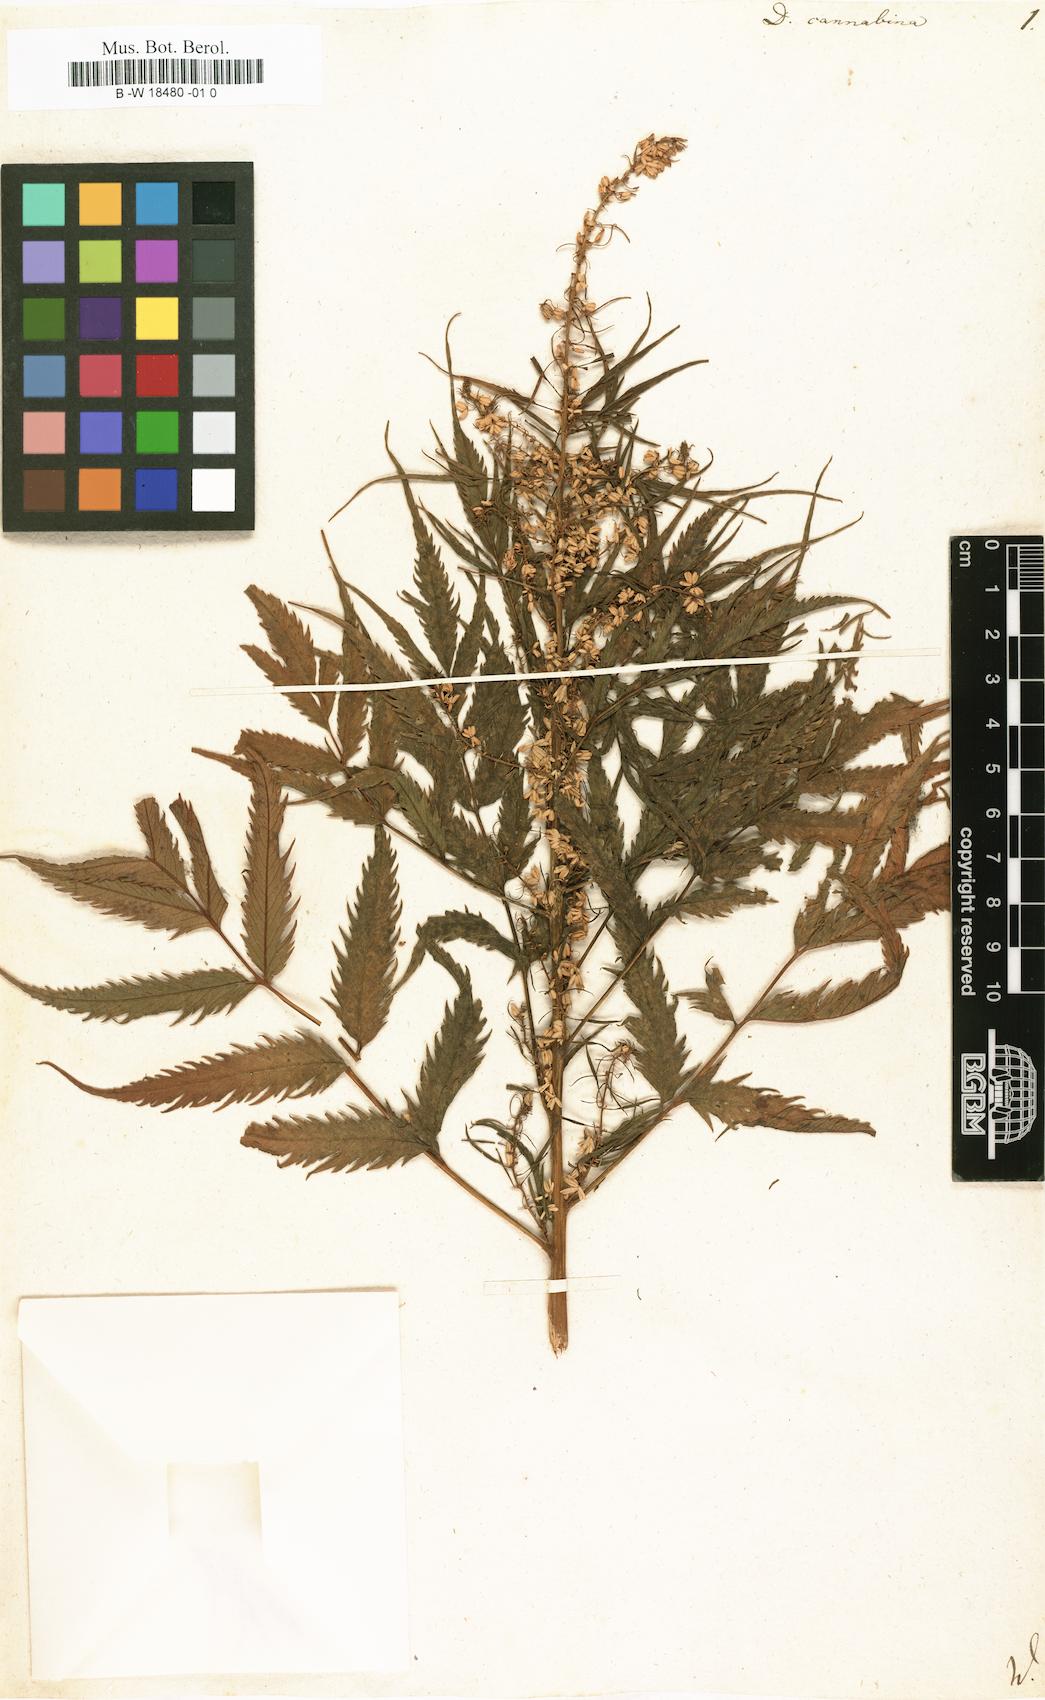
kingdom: Plantae
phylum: Tracheophyta
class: Magnoliopsida
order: Cucurbitales
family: Datiscaceae
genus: Datisca
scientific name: Datisca cannabina
